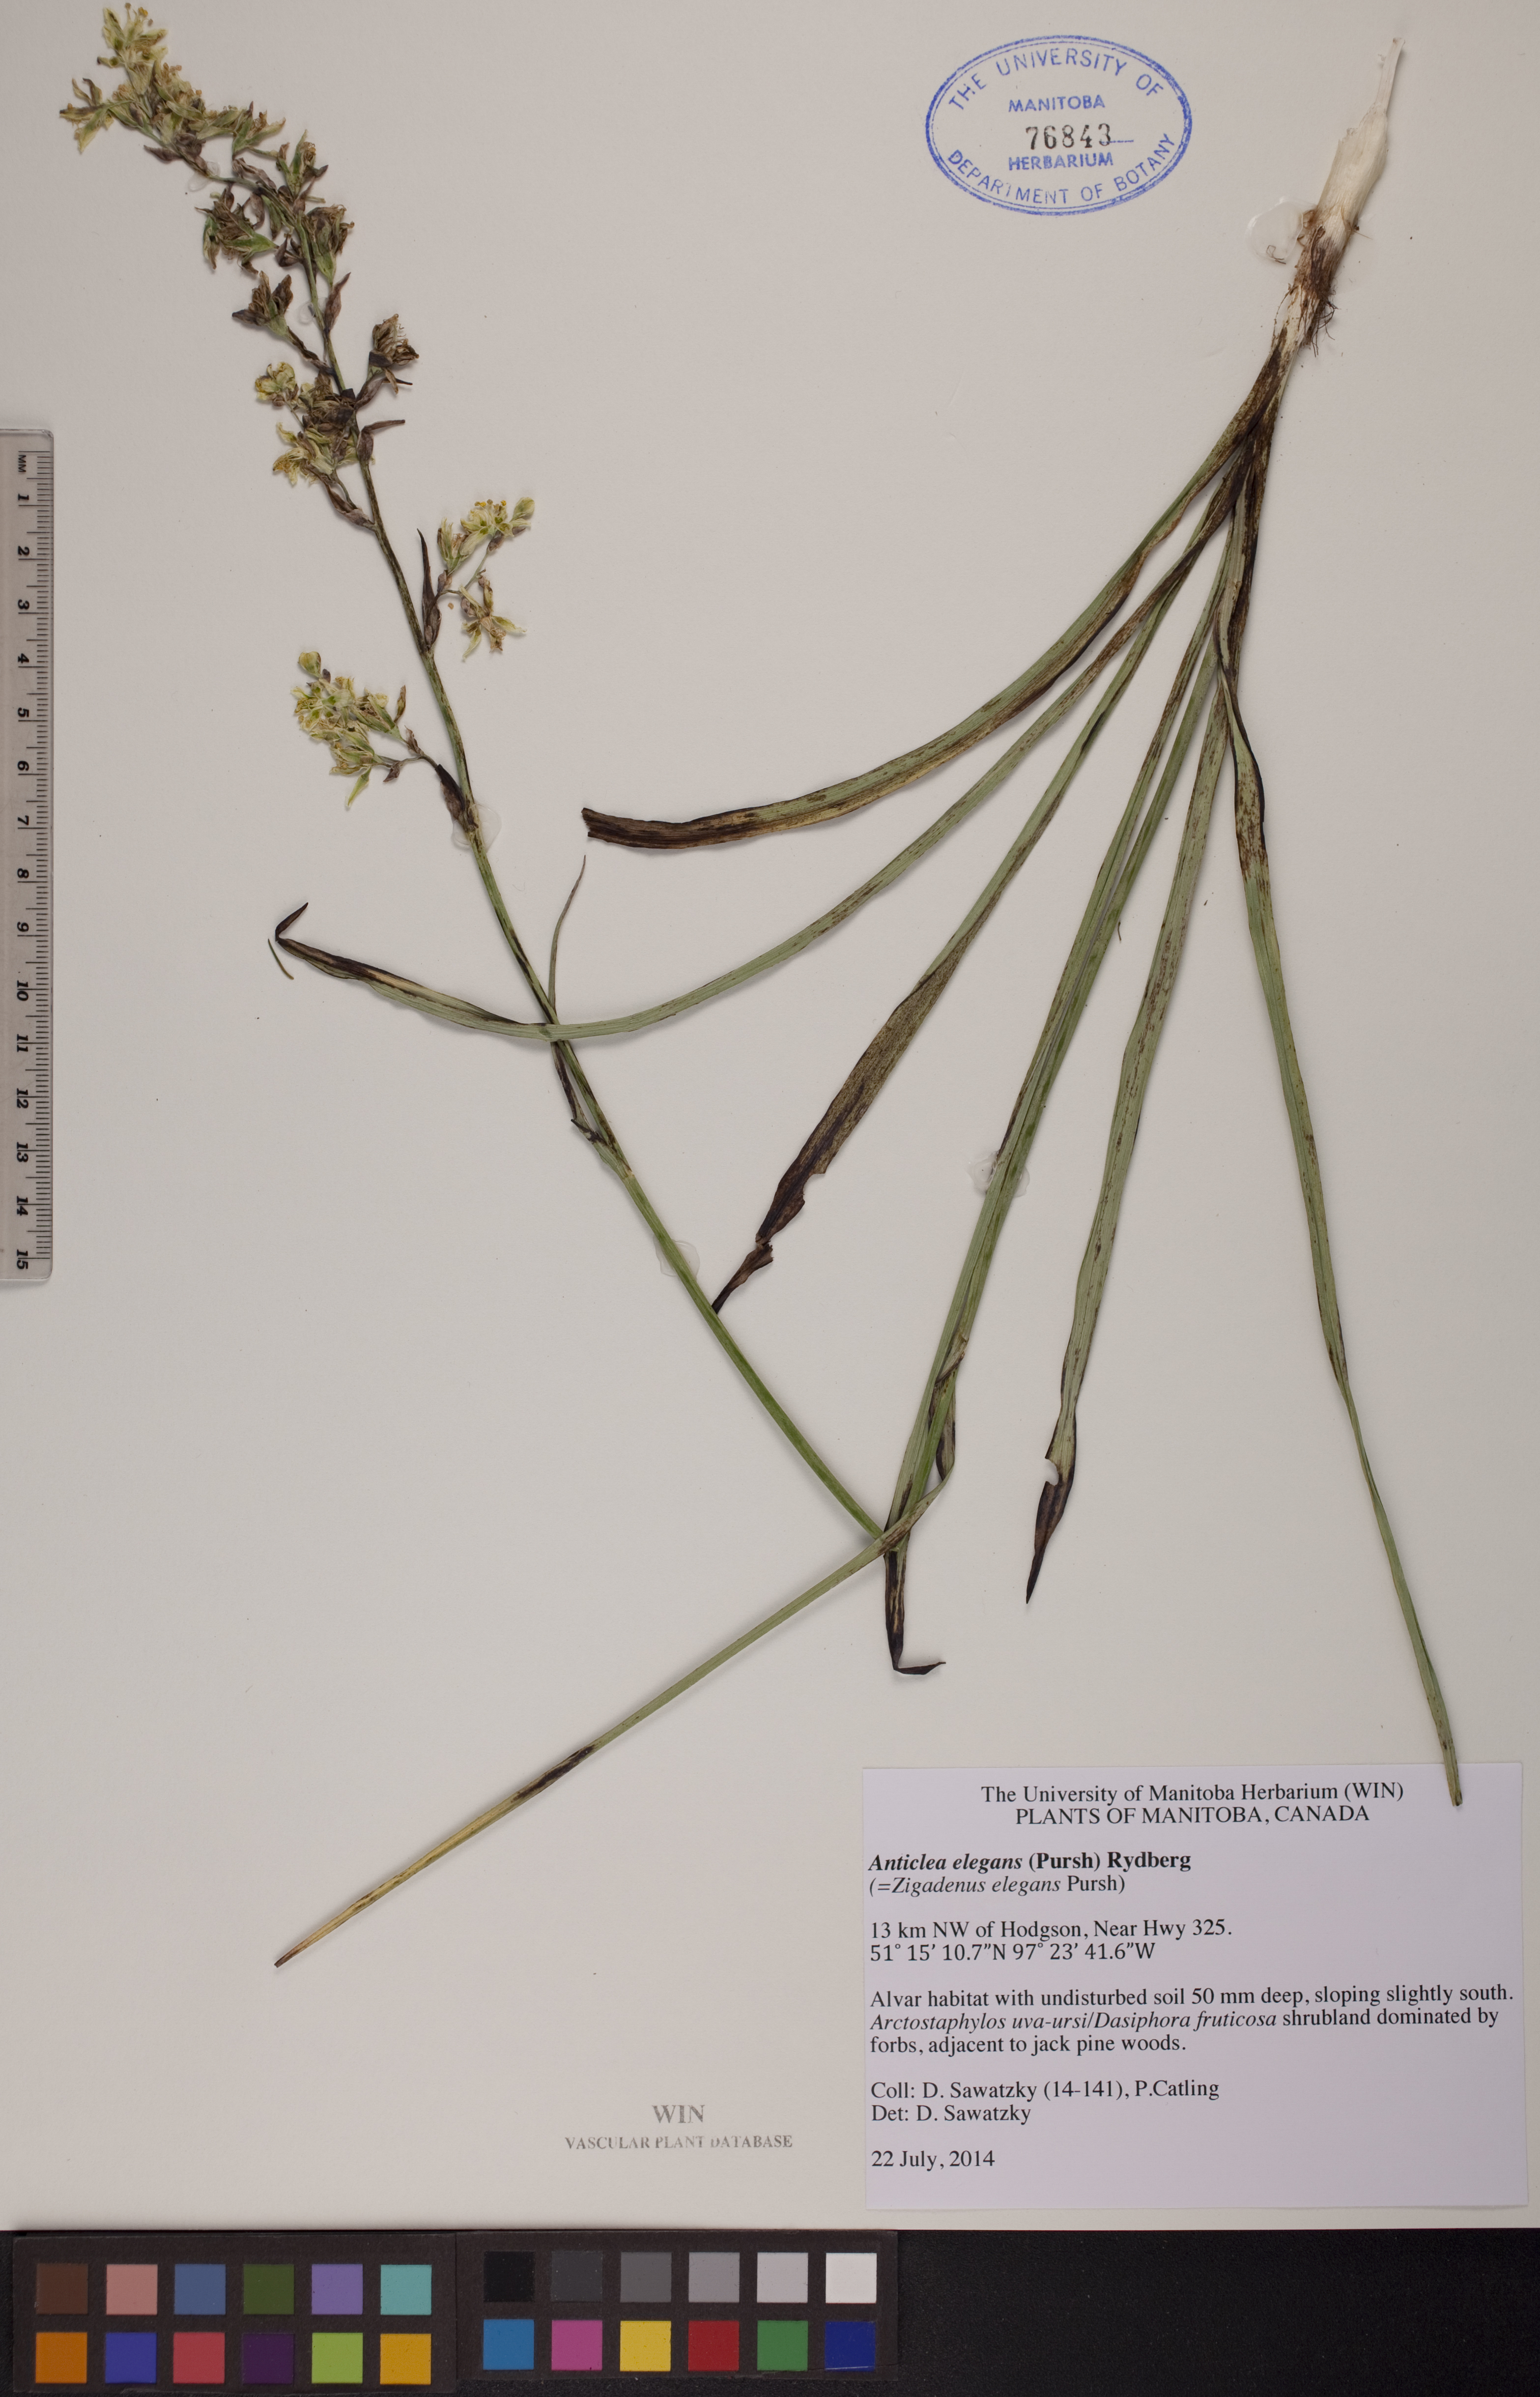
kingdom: Plantae
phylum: Tracheophyta
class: Liliopsida
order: Liliales
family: Melanthiaceae
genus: Anticlea
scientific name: Anticlea elegans
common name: Mountain death camas
